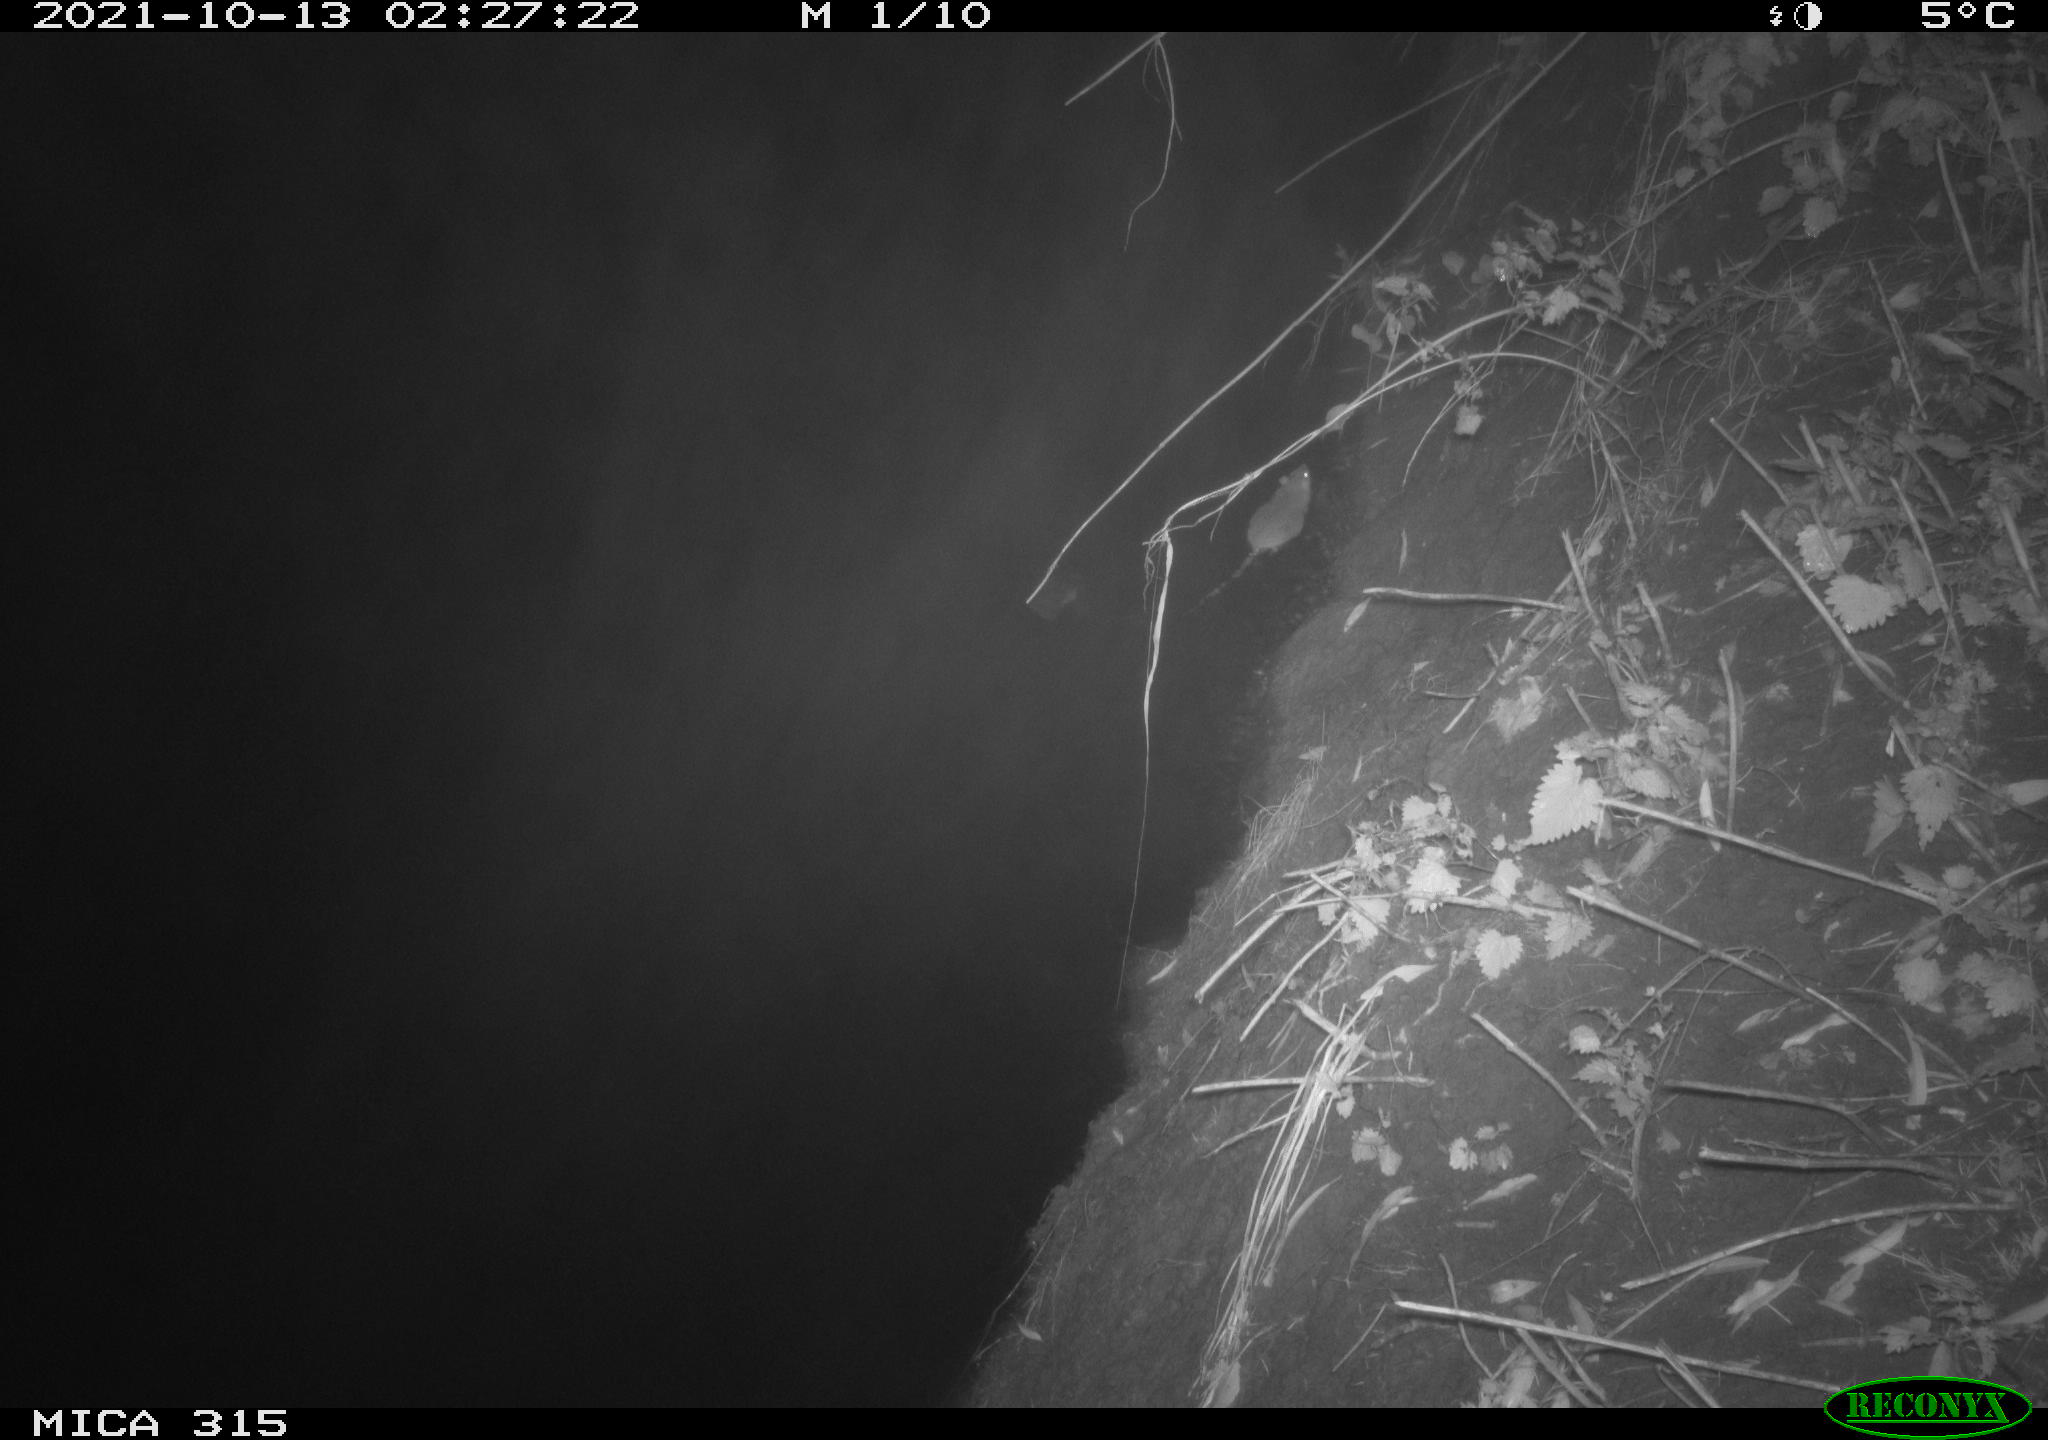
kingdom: Animalia
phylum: Chordata
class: Mammalia
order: Rodentia
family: Muridae
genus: Rattus
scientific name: Rattus norvegicus
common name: Brown rat
